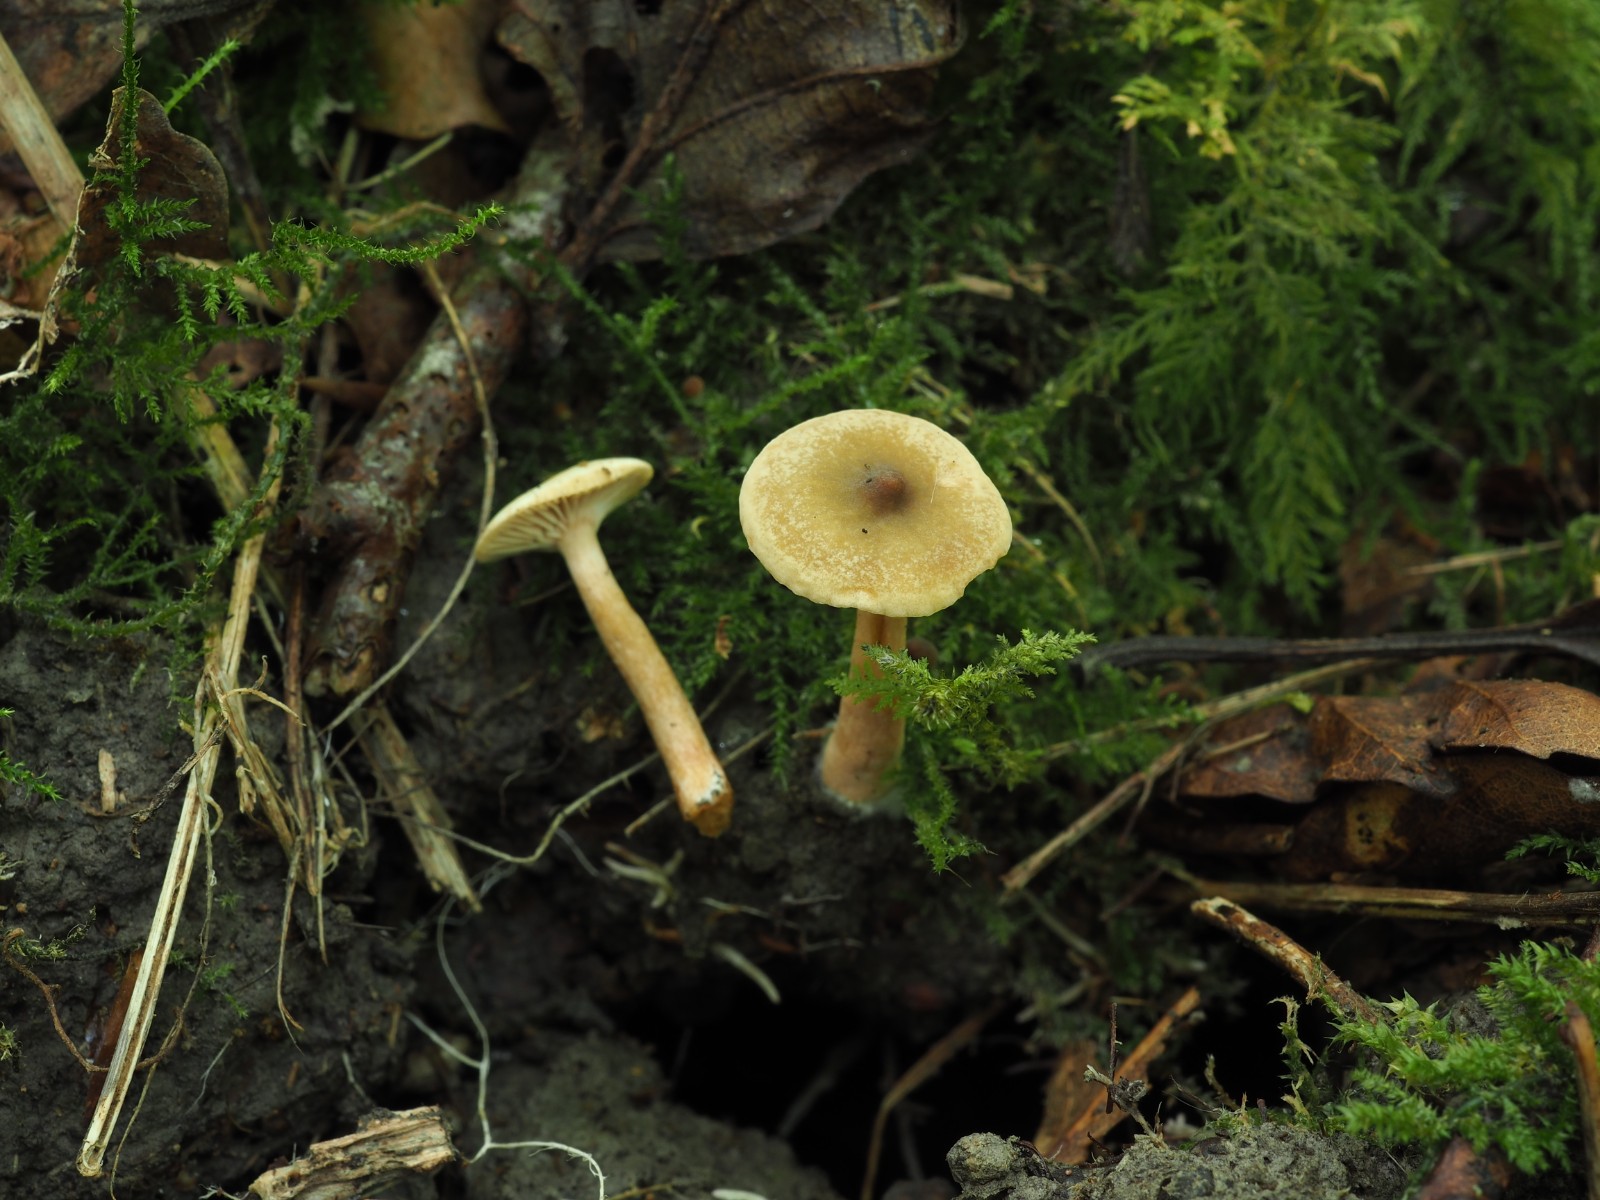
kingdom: Fungi
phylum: Basidiomycota
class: Agaricomycetes
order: Russulales
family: Russulaceae
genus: Lactarius
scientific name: Lactarius obscuratus
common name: elle-mælkehat
